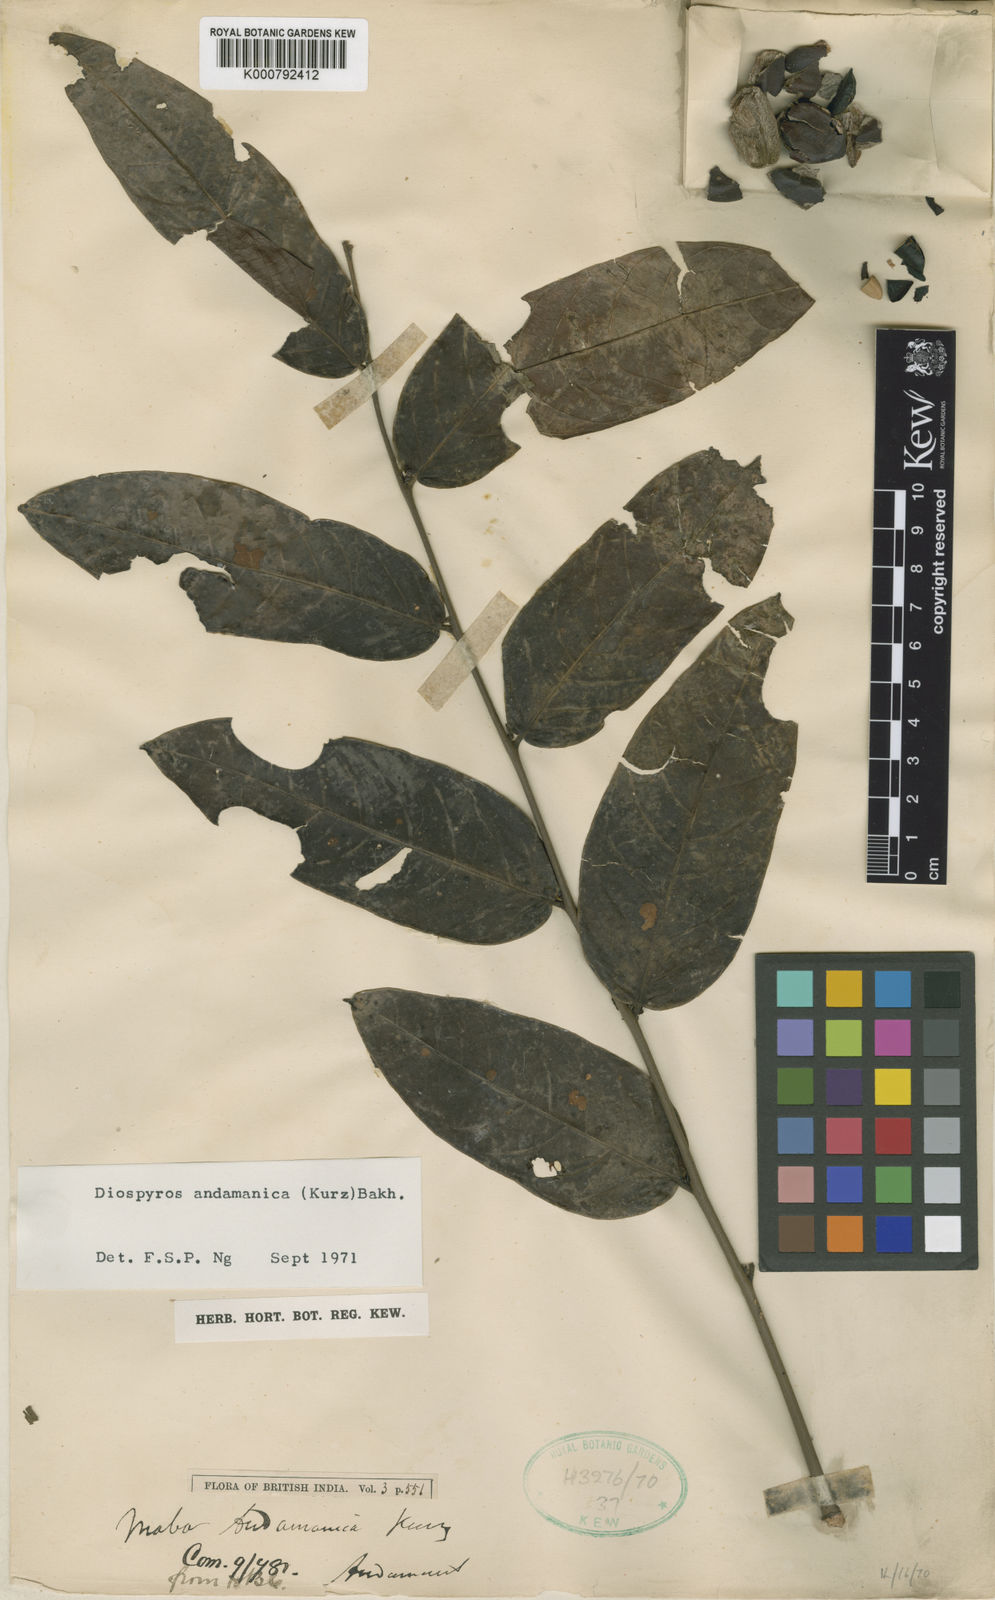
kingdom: Plantae
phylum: Tracheophyta
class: Magnoliopsida
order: Ericales
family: Ebenaceae
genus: Diospyros
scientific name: Diospyros andamanica
